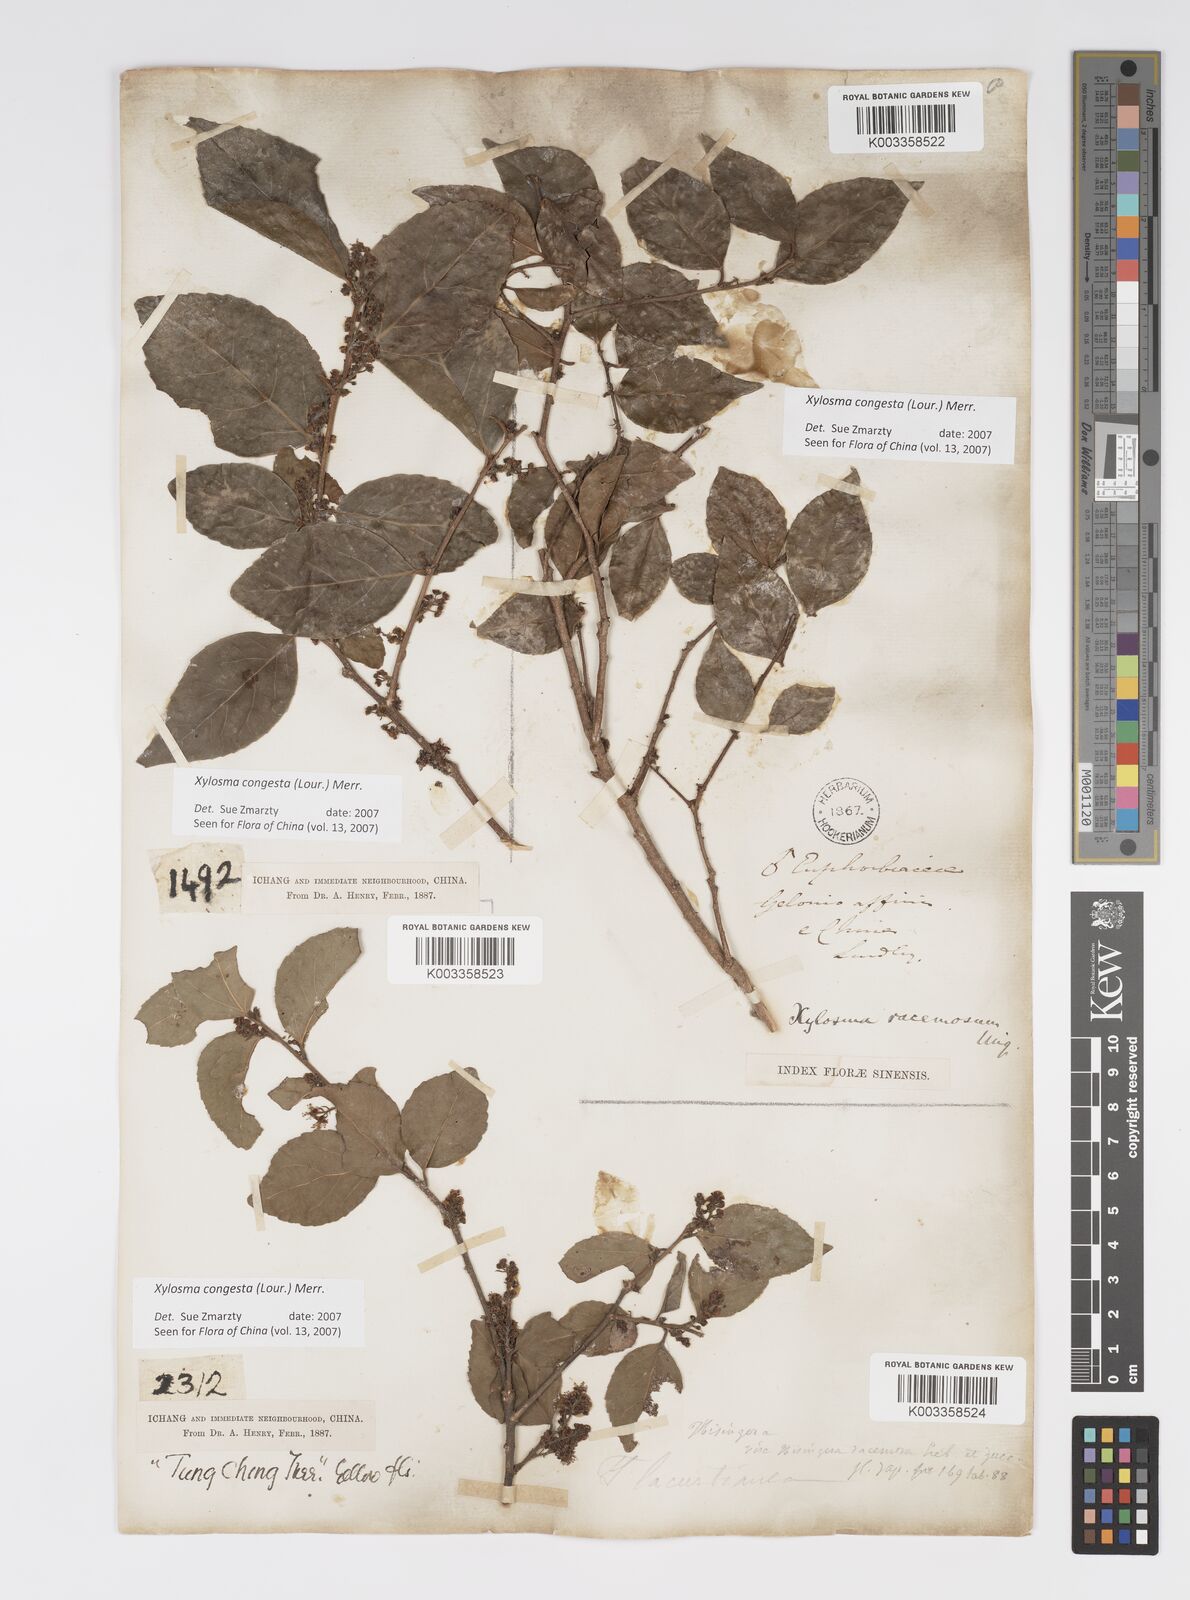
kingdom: Plantae
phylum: Tracheophyta
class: Magnoliopsida
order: Malpighiales
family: Salicaceae
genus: Xylosma
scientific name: Xylosma racemosum
